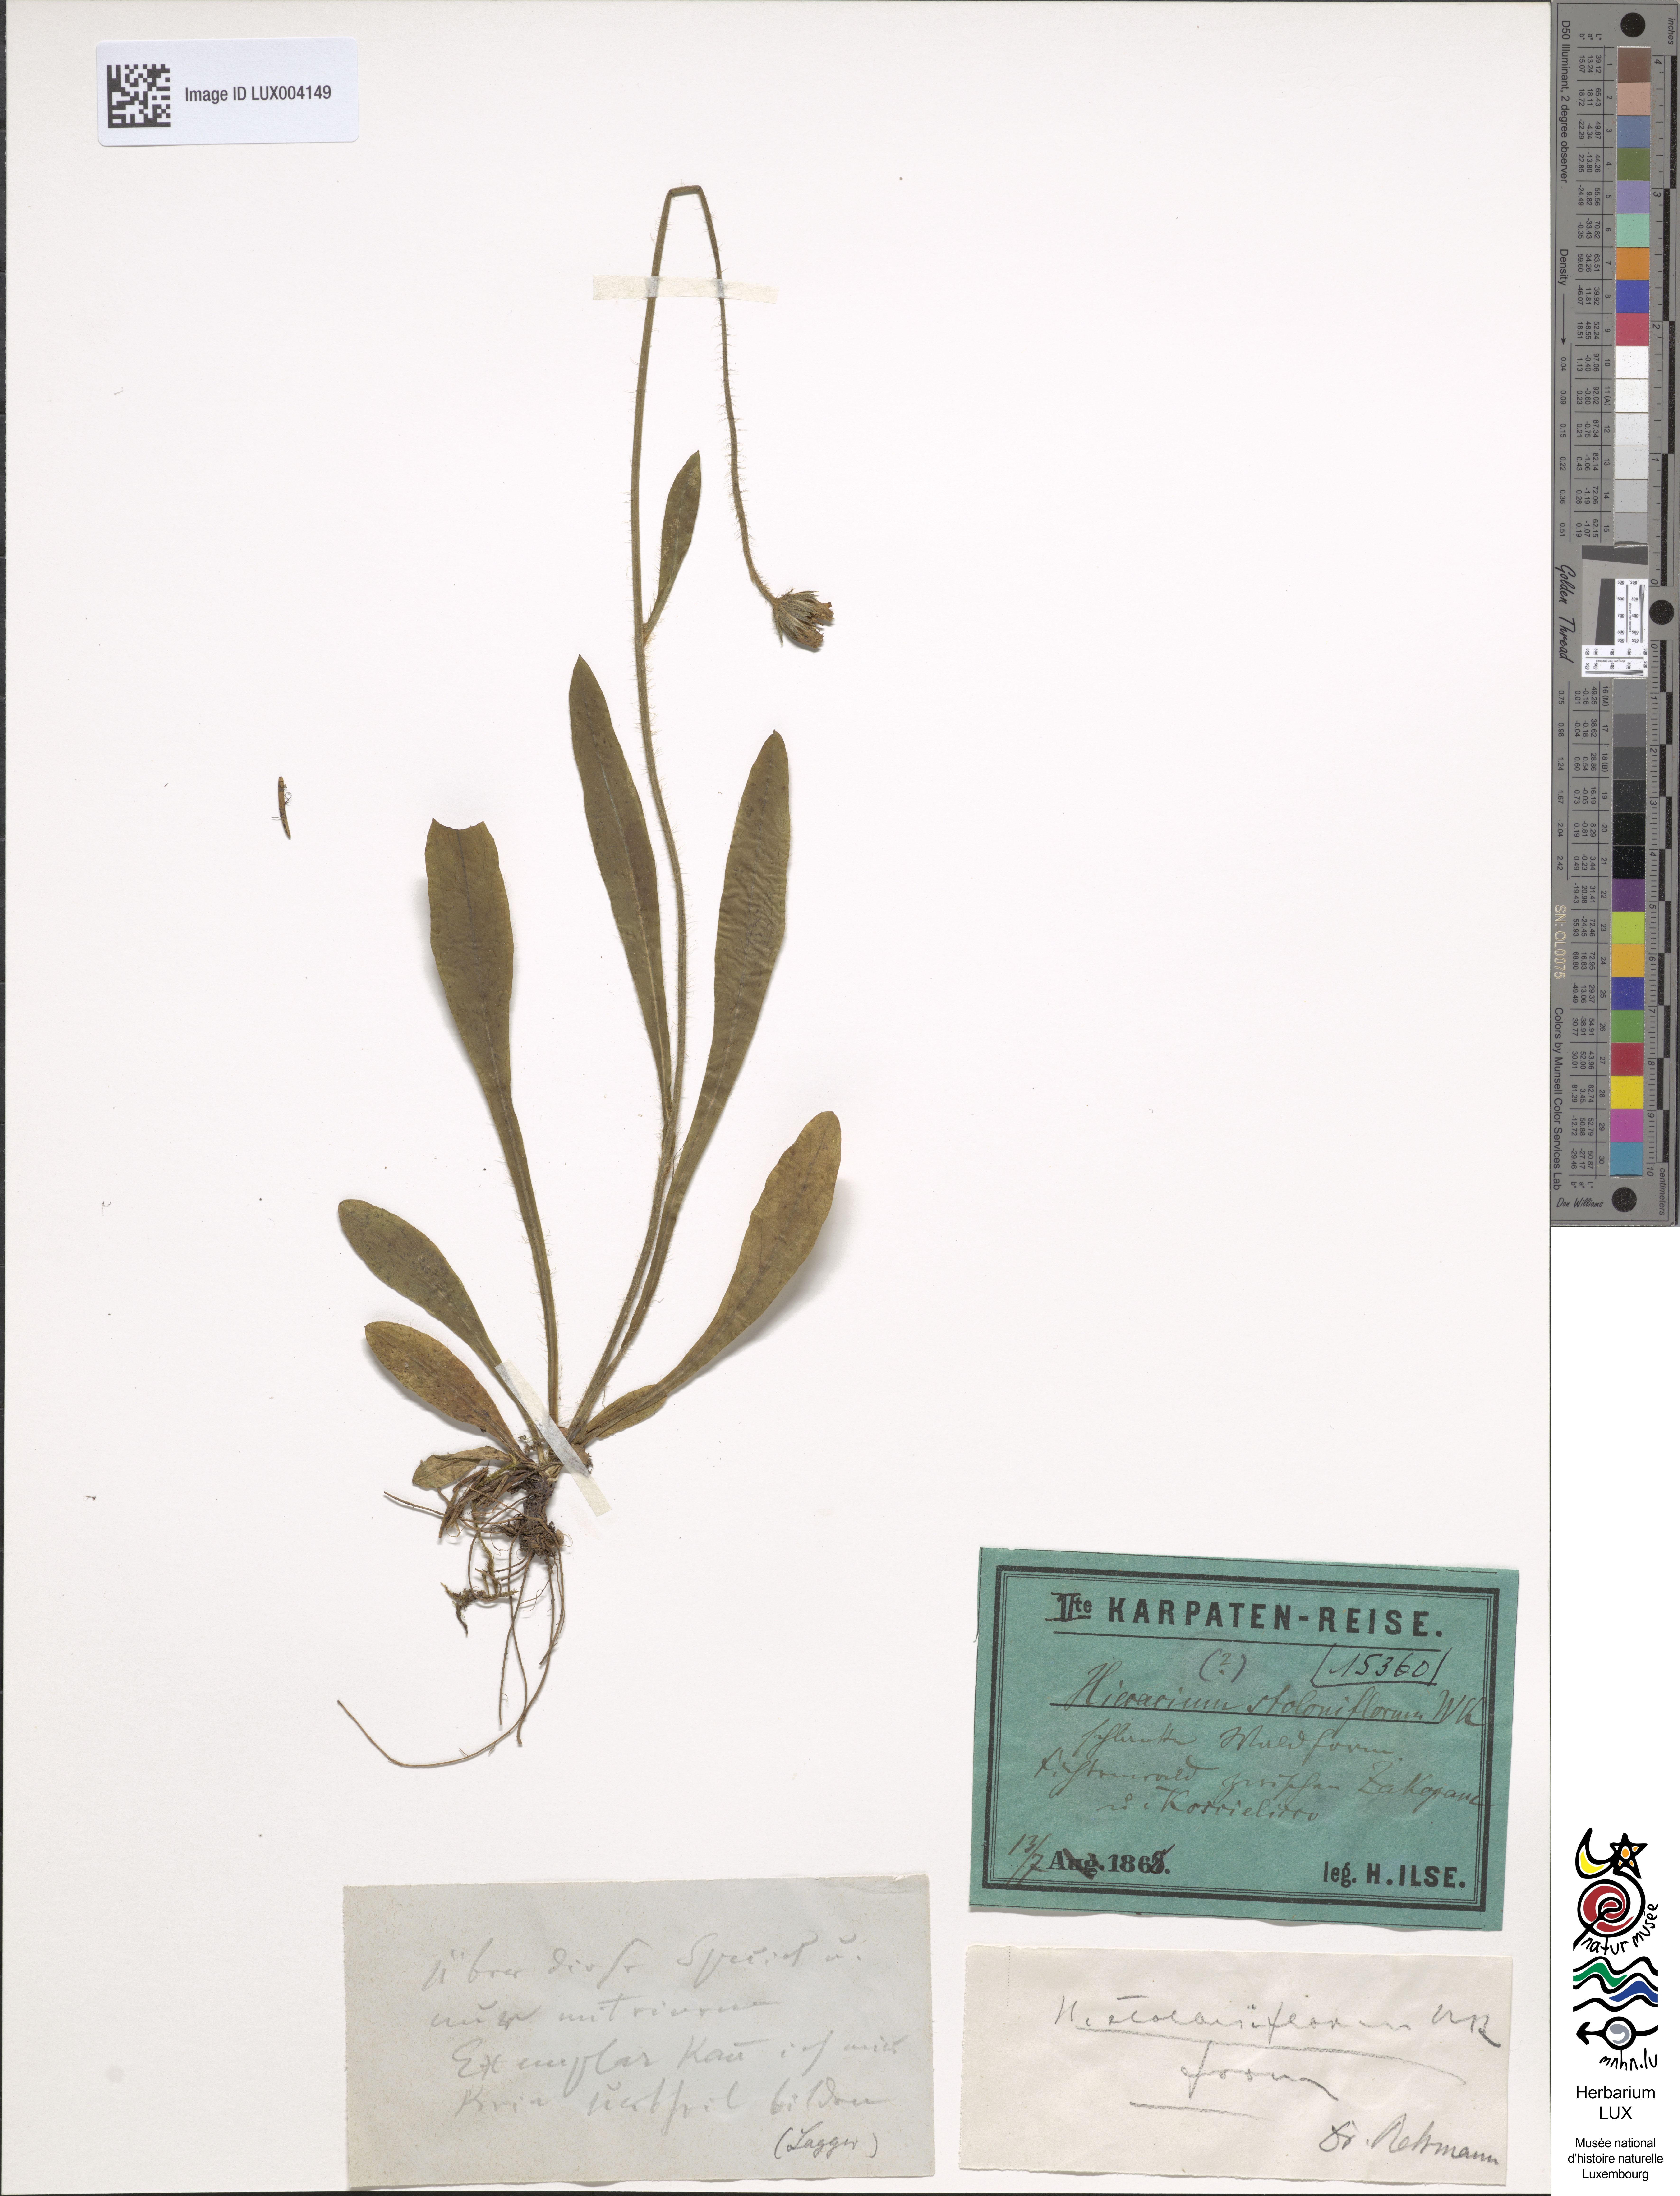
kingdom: Plantae
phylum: Tracheophyta
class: Magnoliopsida
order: Asterales
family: Asteraceae
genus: Pilosella
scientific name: Pilosella stoloniflora
